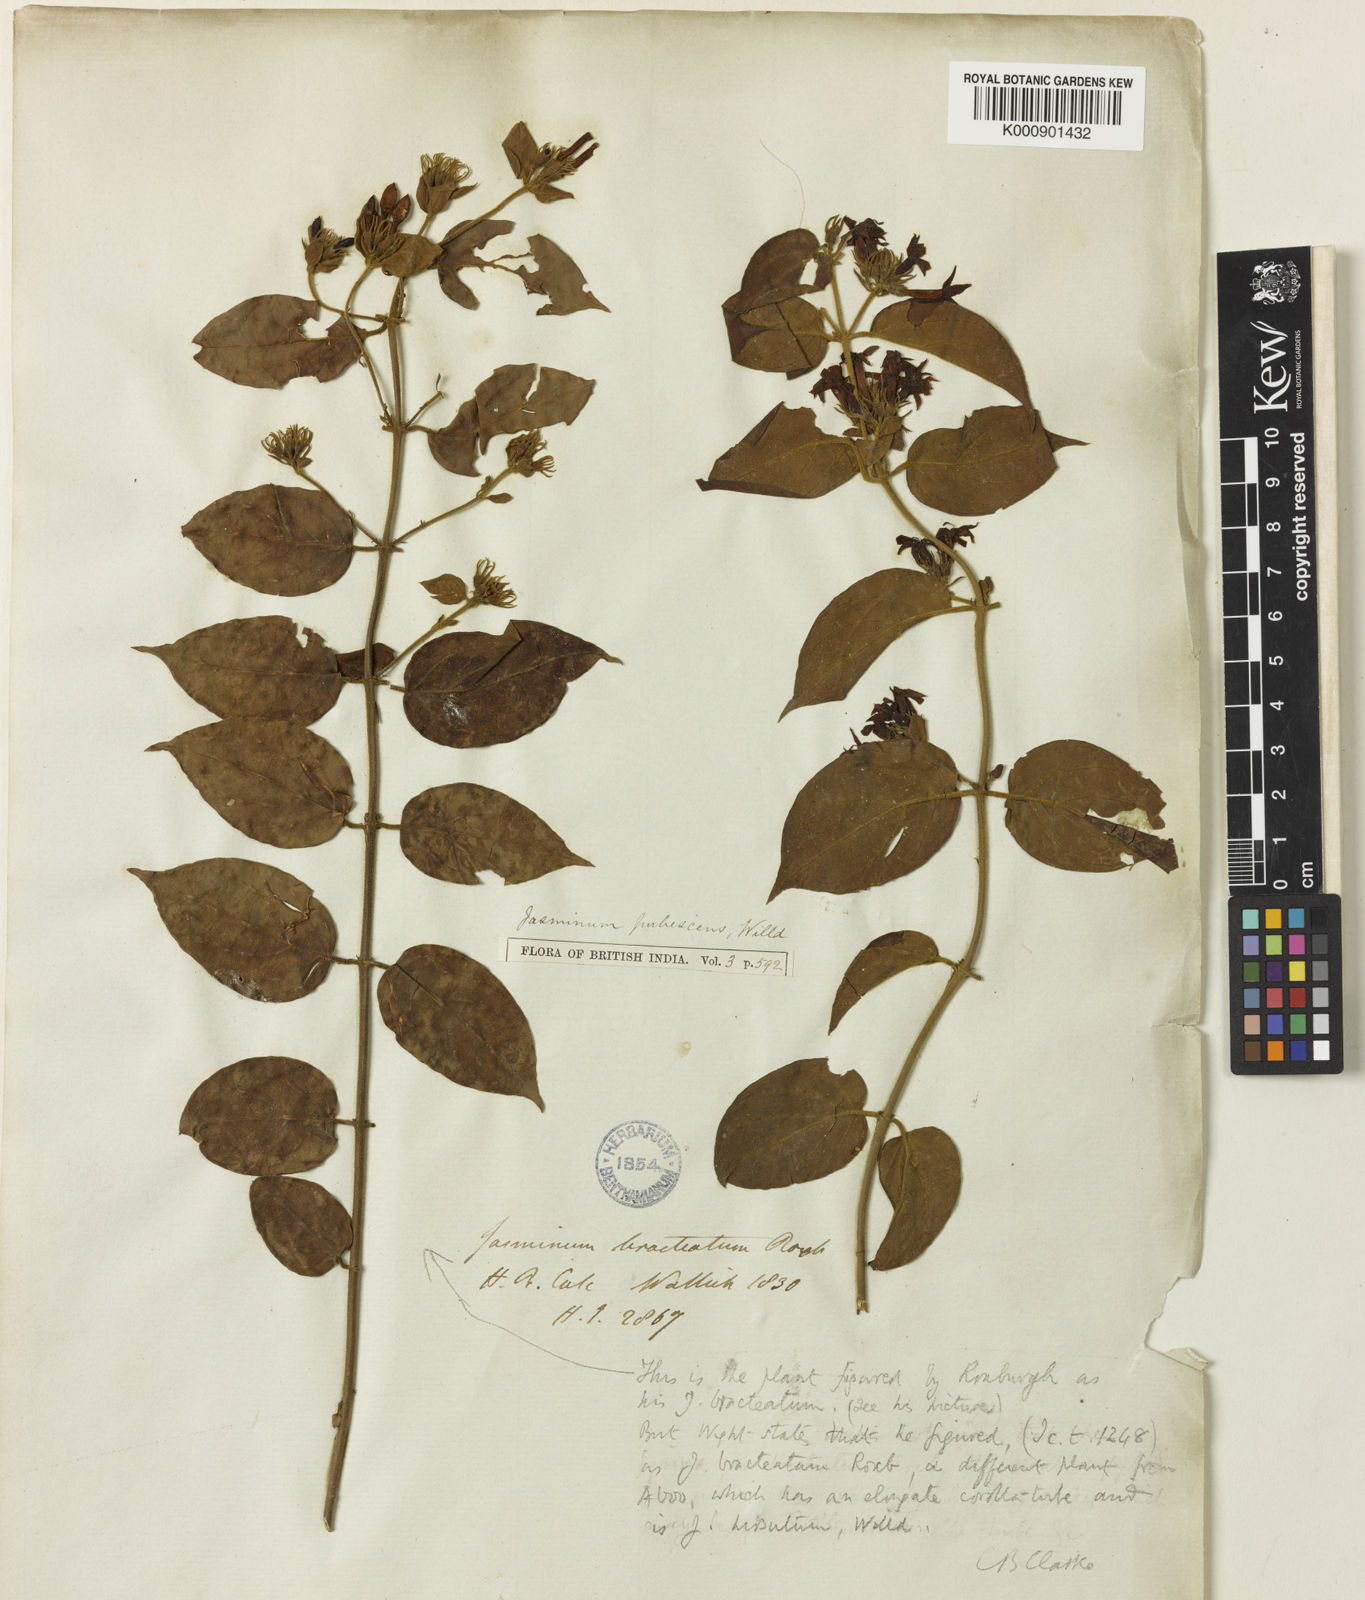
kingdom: Plantae
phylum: Tracheophyta
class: Magnoliopsida
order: Lamiales
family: Oleaceae
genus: Jasminum
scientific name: Jasminum elongatum
